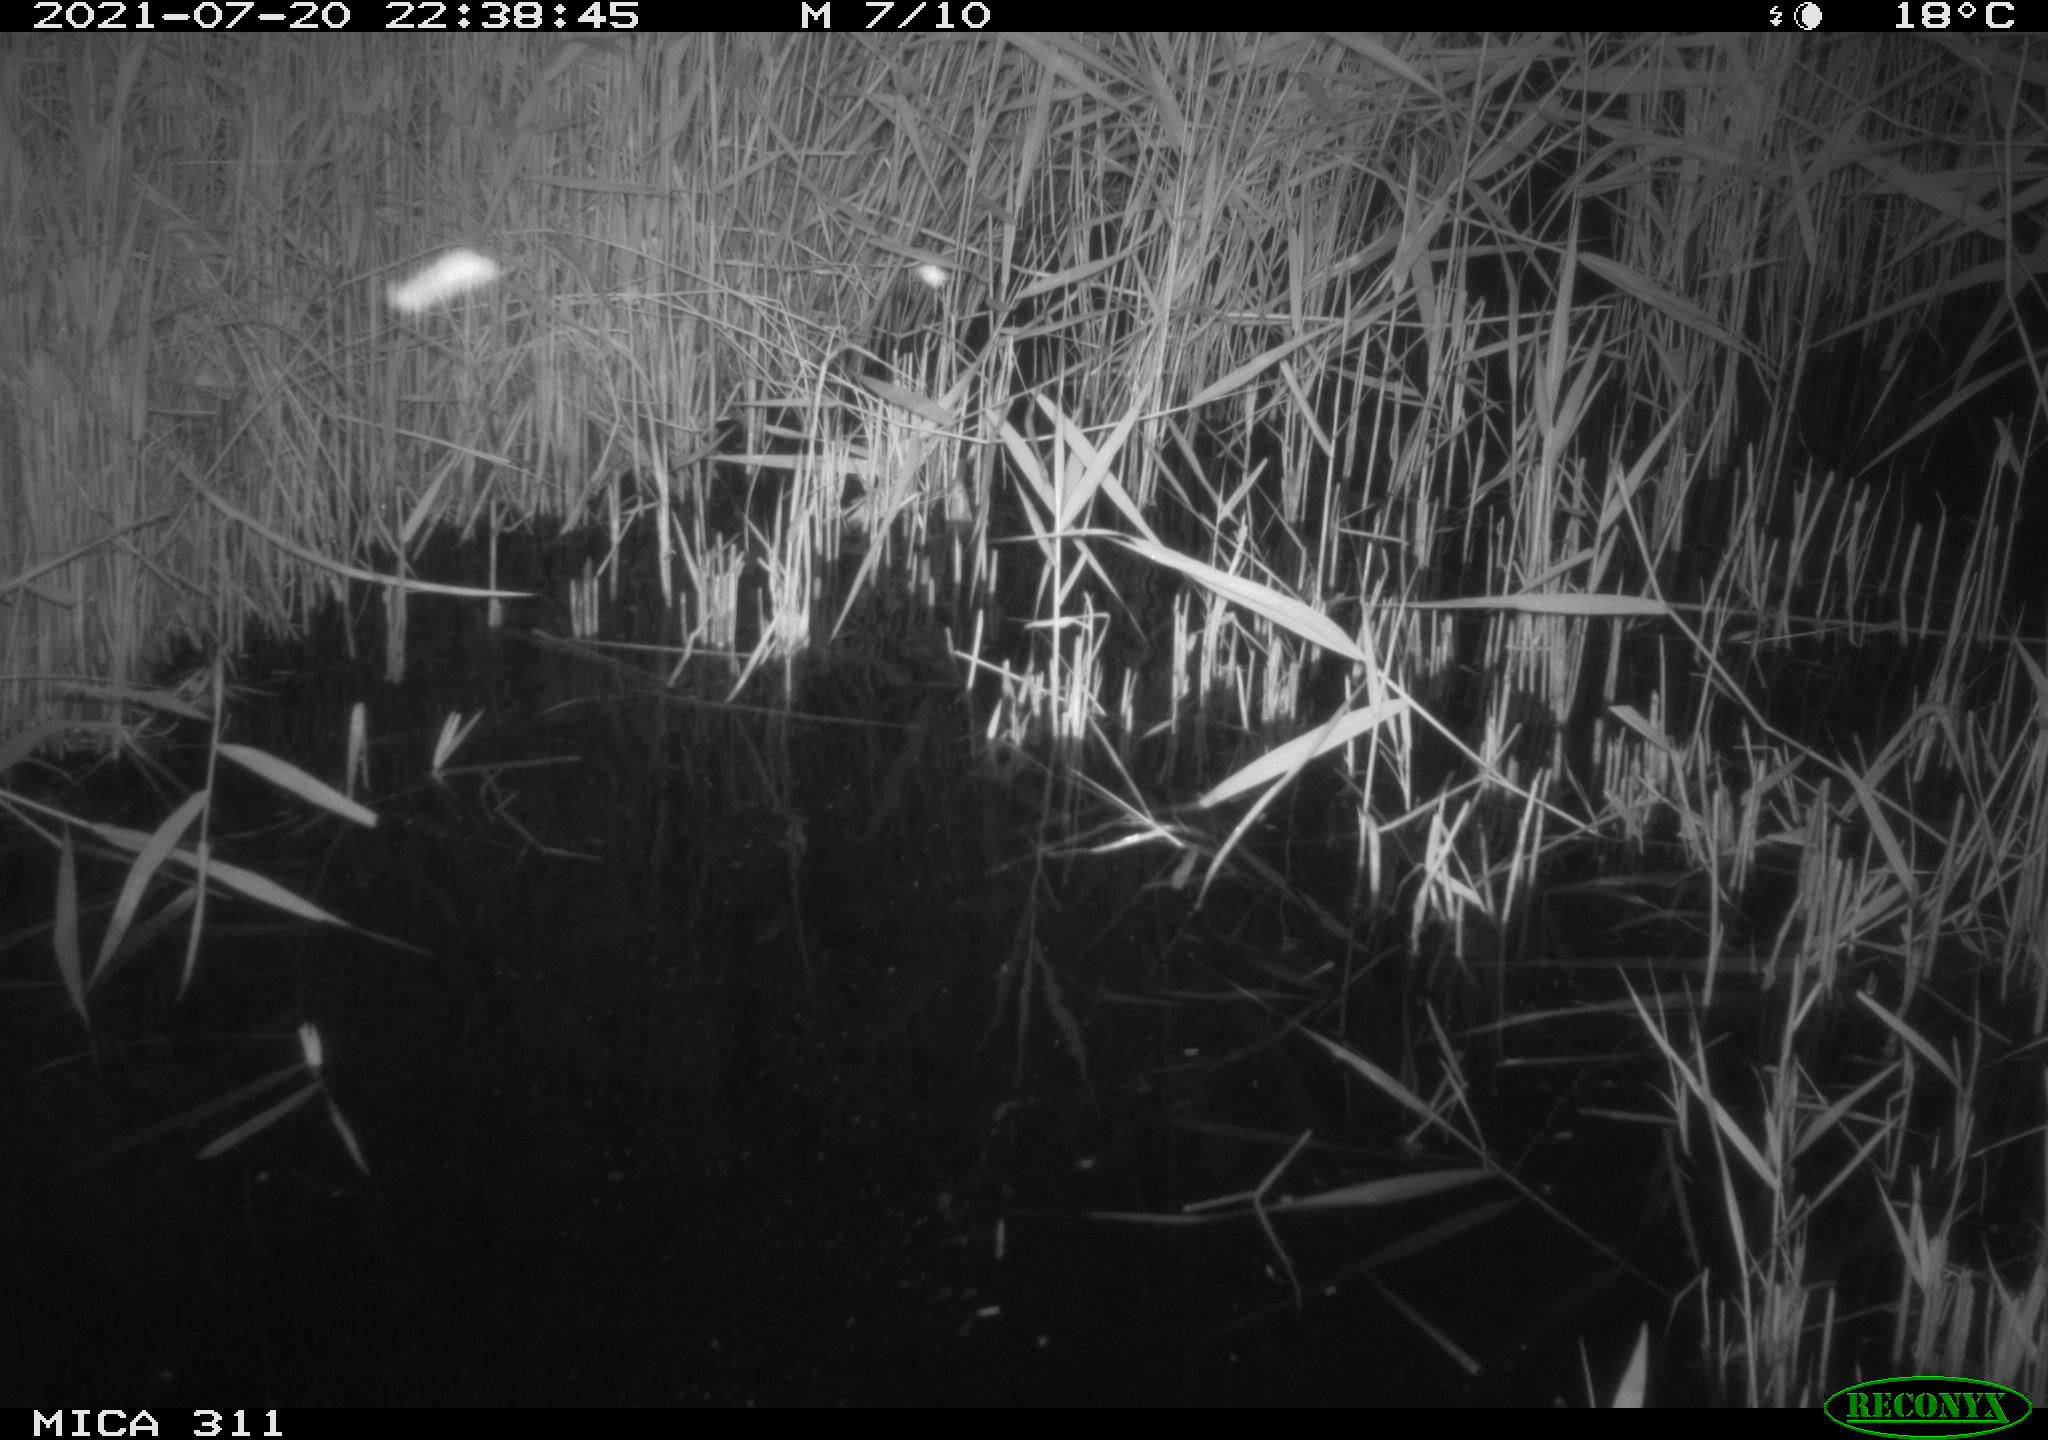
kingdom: Animalia
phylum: Chordata
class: Mammalia
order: Rodentia
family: Muridae
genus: Rattus
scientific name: Rattus norvegicus
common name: Brown rat
